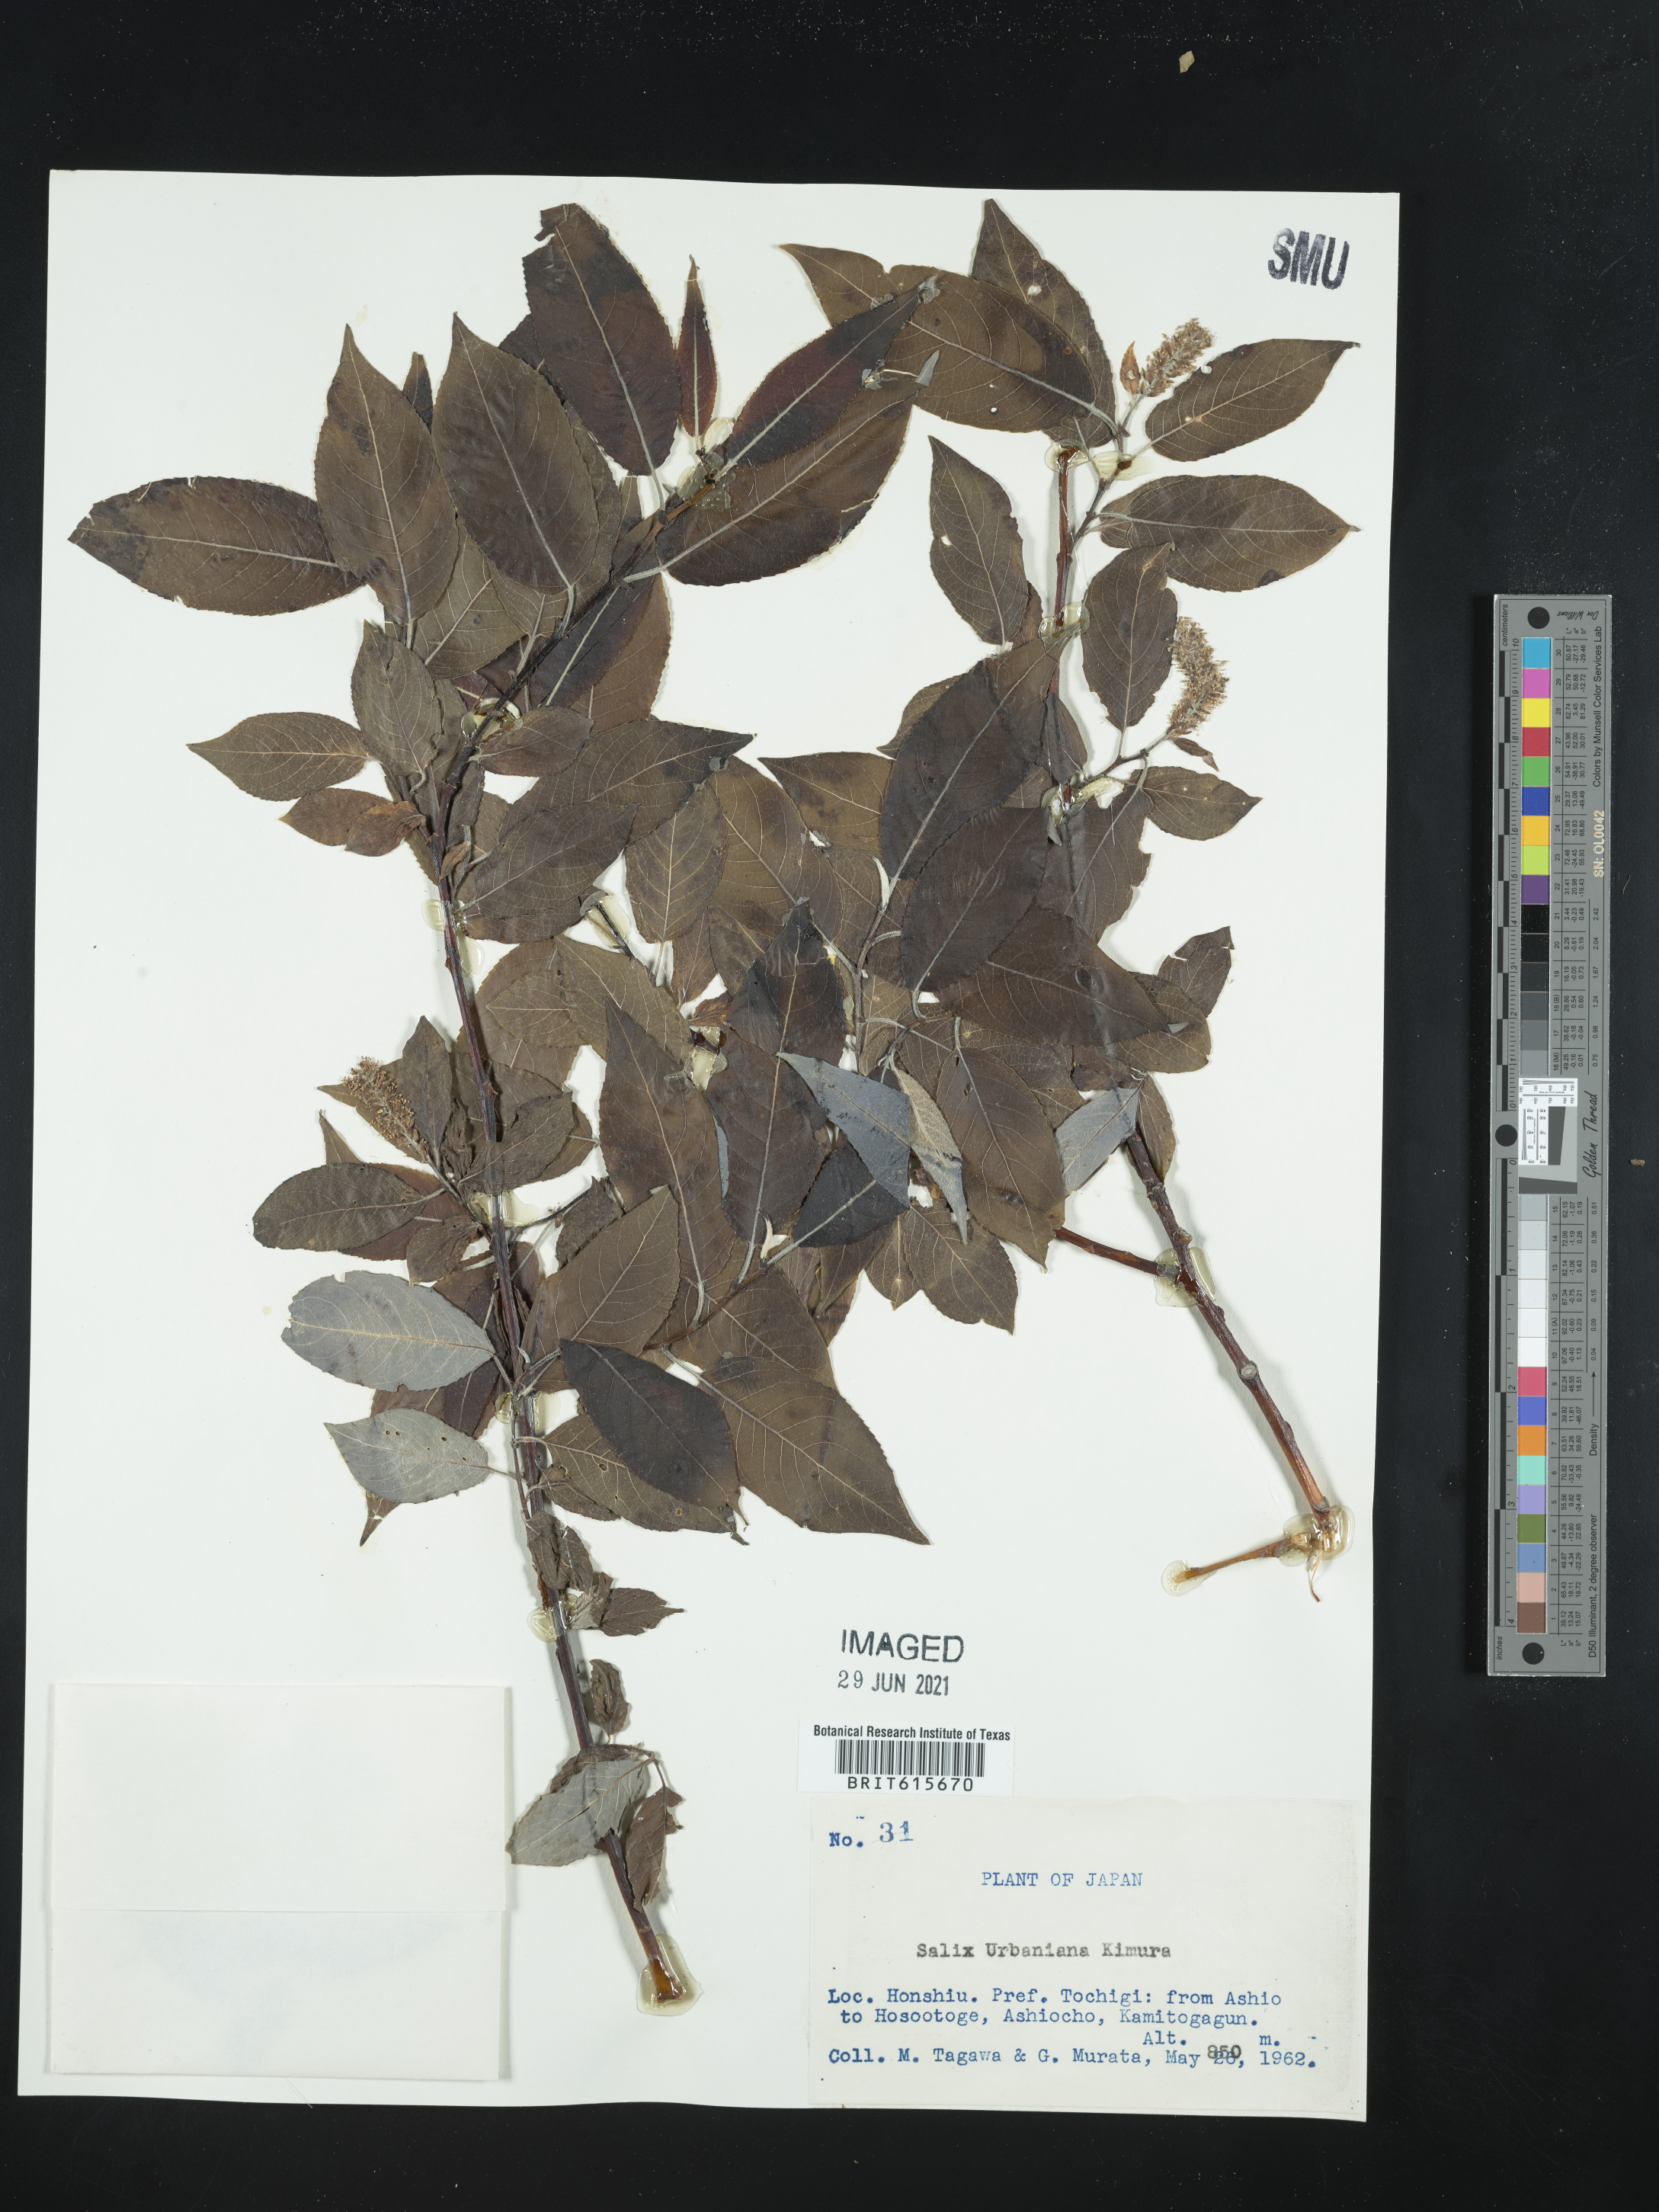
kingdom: Plantae
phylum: Tracheophyta
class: Magnoliopsida
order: Malpighiales
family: Salicaceae
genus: Chosenia
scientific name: Chosenia urbaniana
